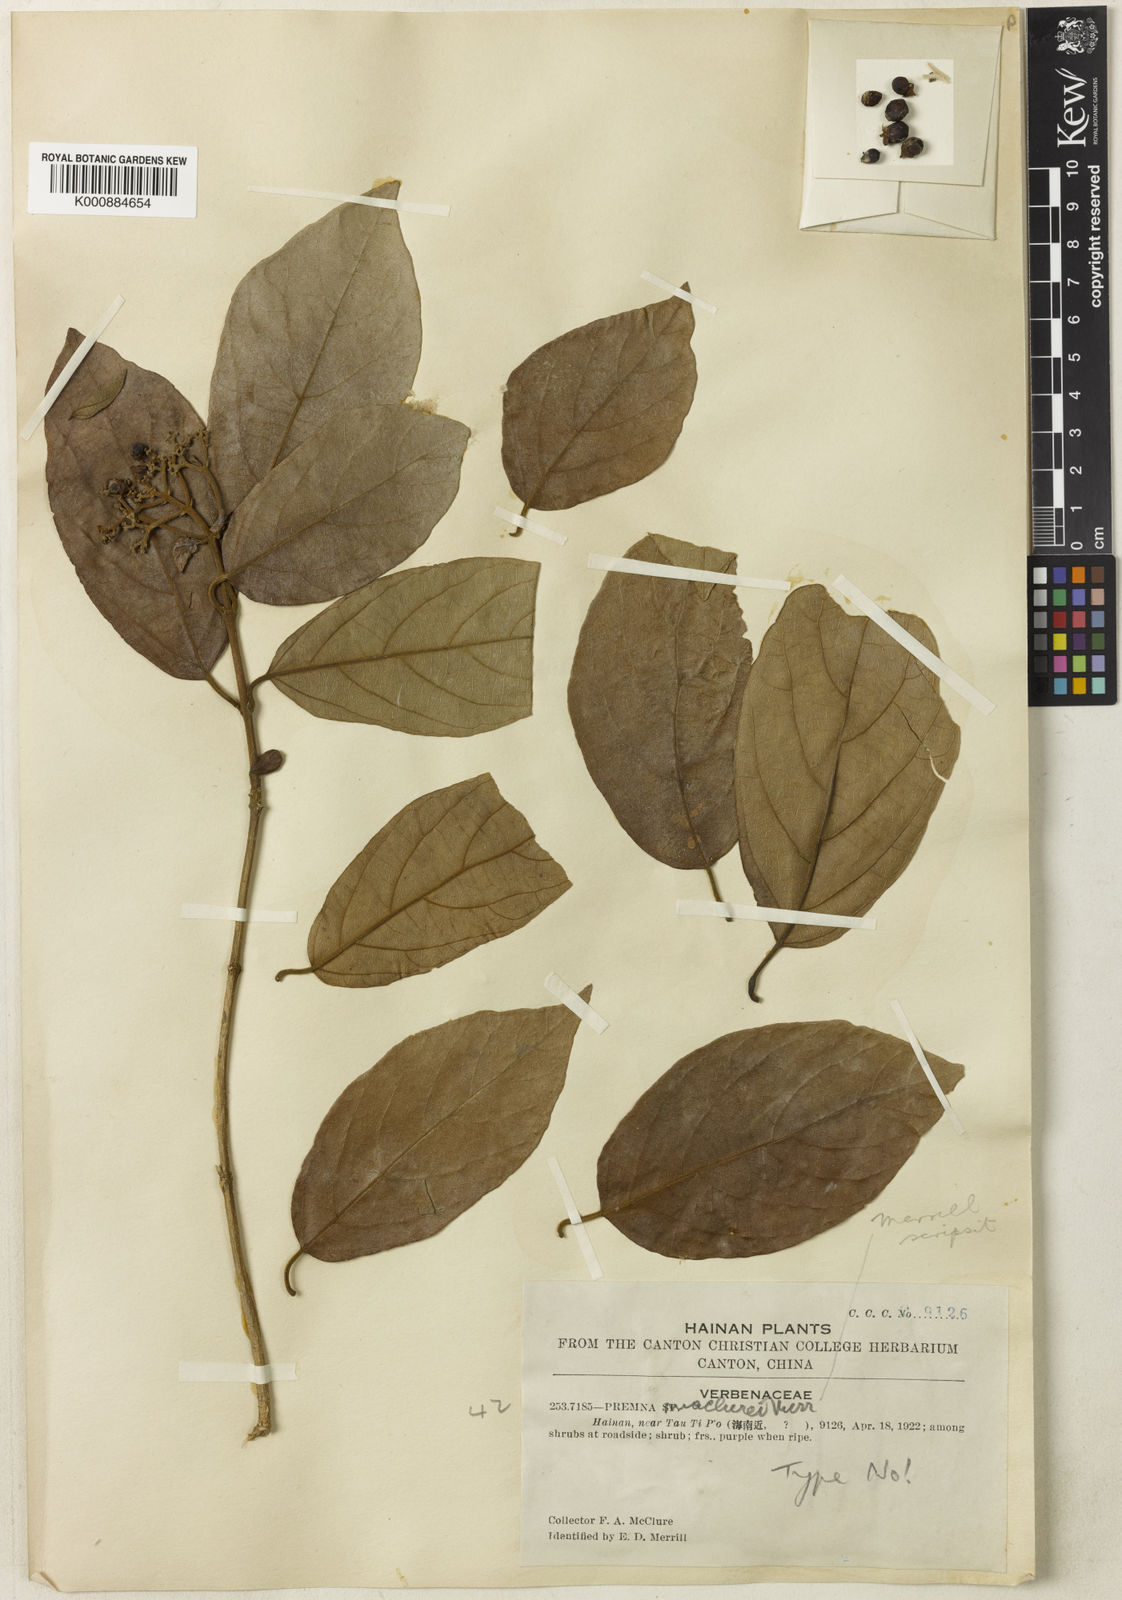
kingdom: Plantae
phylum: Tracheophyta
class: Magnoliopsida
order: Lamiales
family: Lamiaceae
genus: Premna
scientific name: Premna odorata
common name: Fragrant premna
